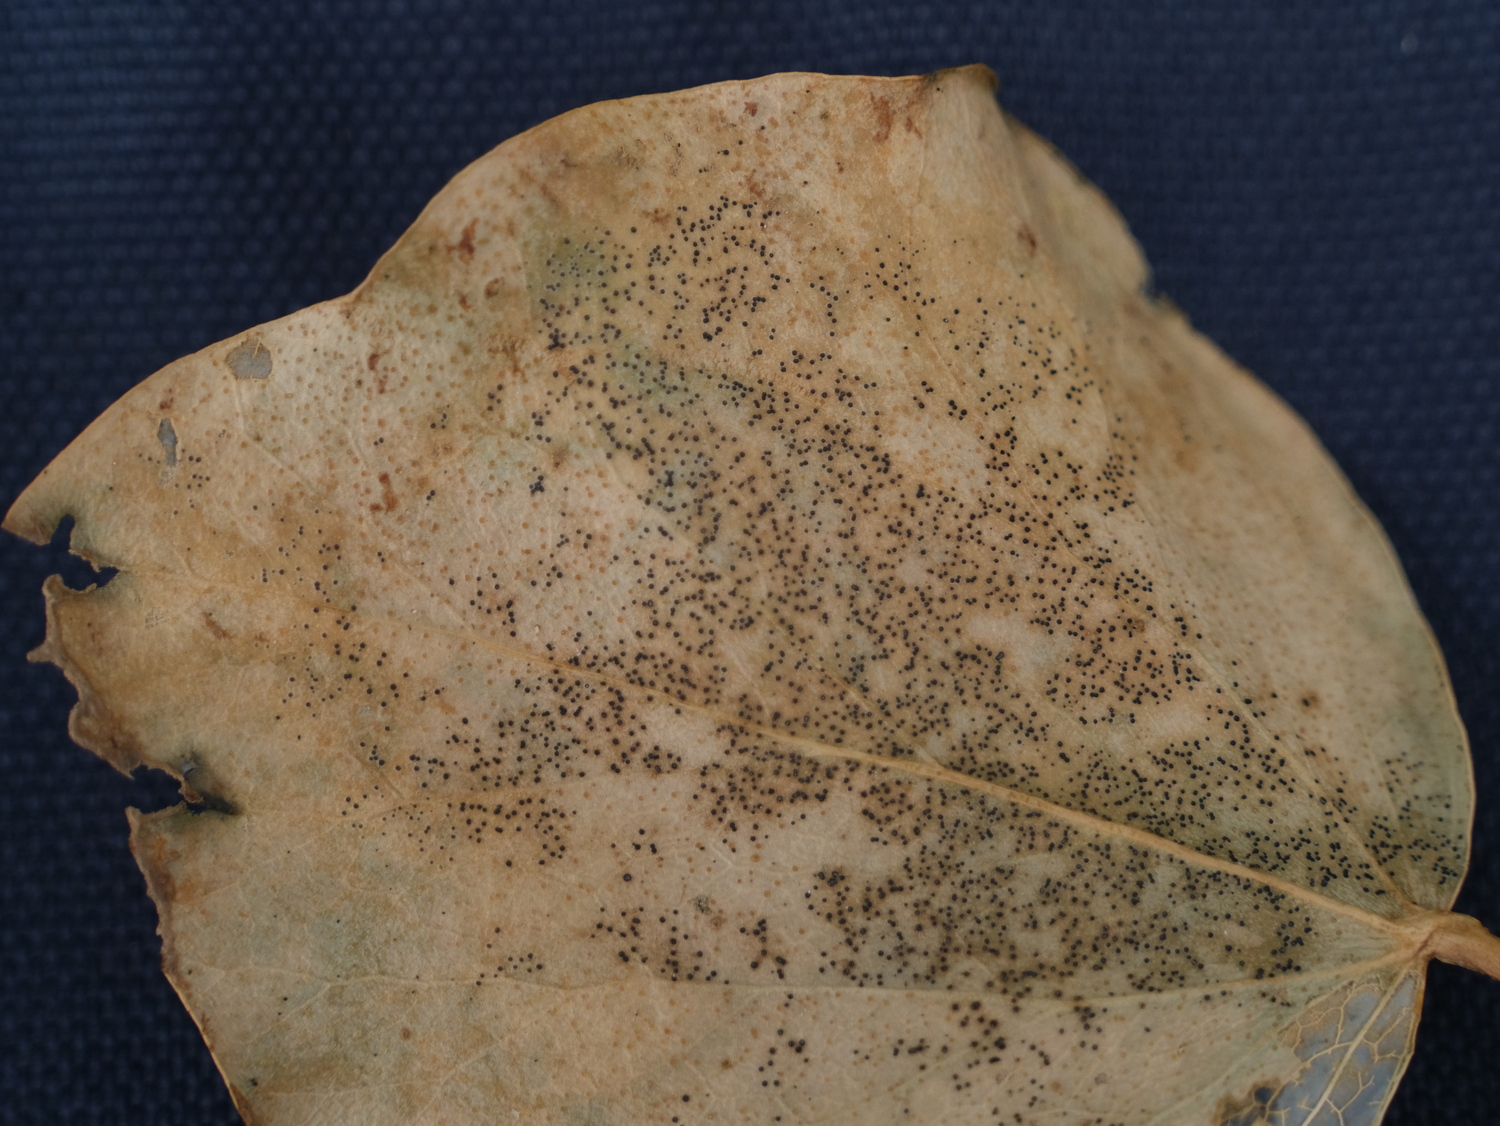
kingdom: Fungi
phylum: Ascomycota
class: Leotiomycetes
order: Helotiales
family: Cenangiaceae
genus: Trochila
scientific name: Trochila craterium
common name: vedbend-lågskive
